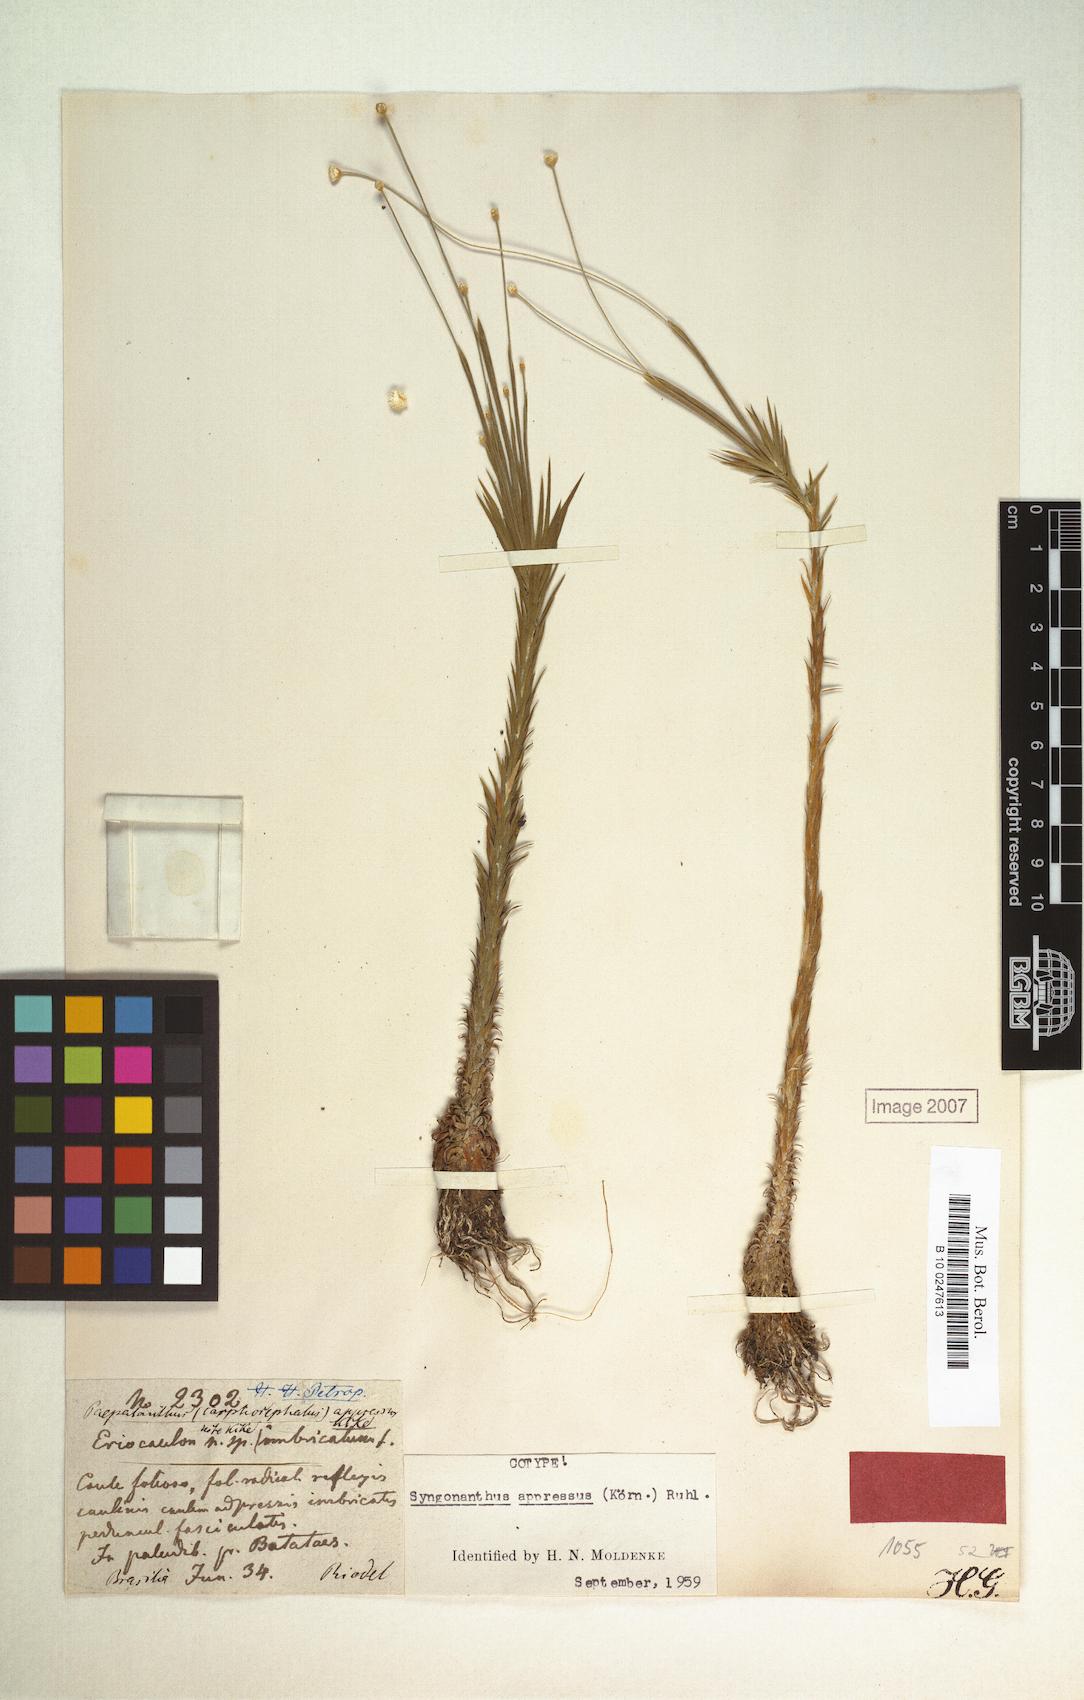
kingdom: Plantae
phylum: Tracheophyta
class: Liliopsida
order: Poales
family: Eriocaulaceae
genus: Syngonanthus
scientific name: Syngonanthus appressus
